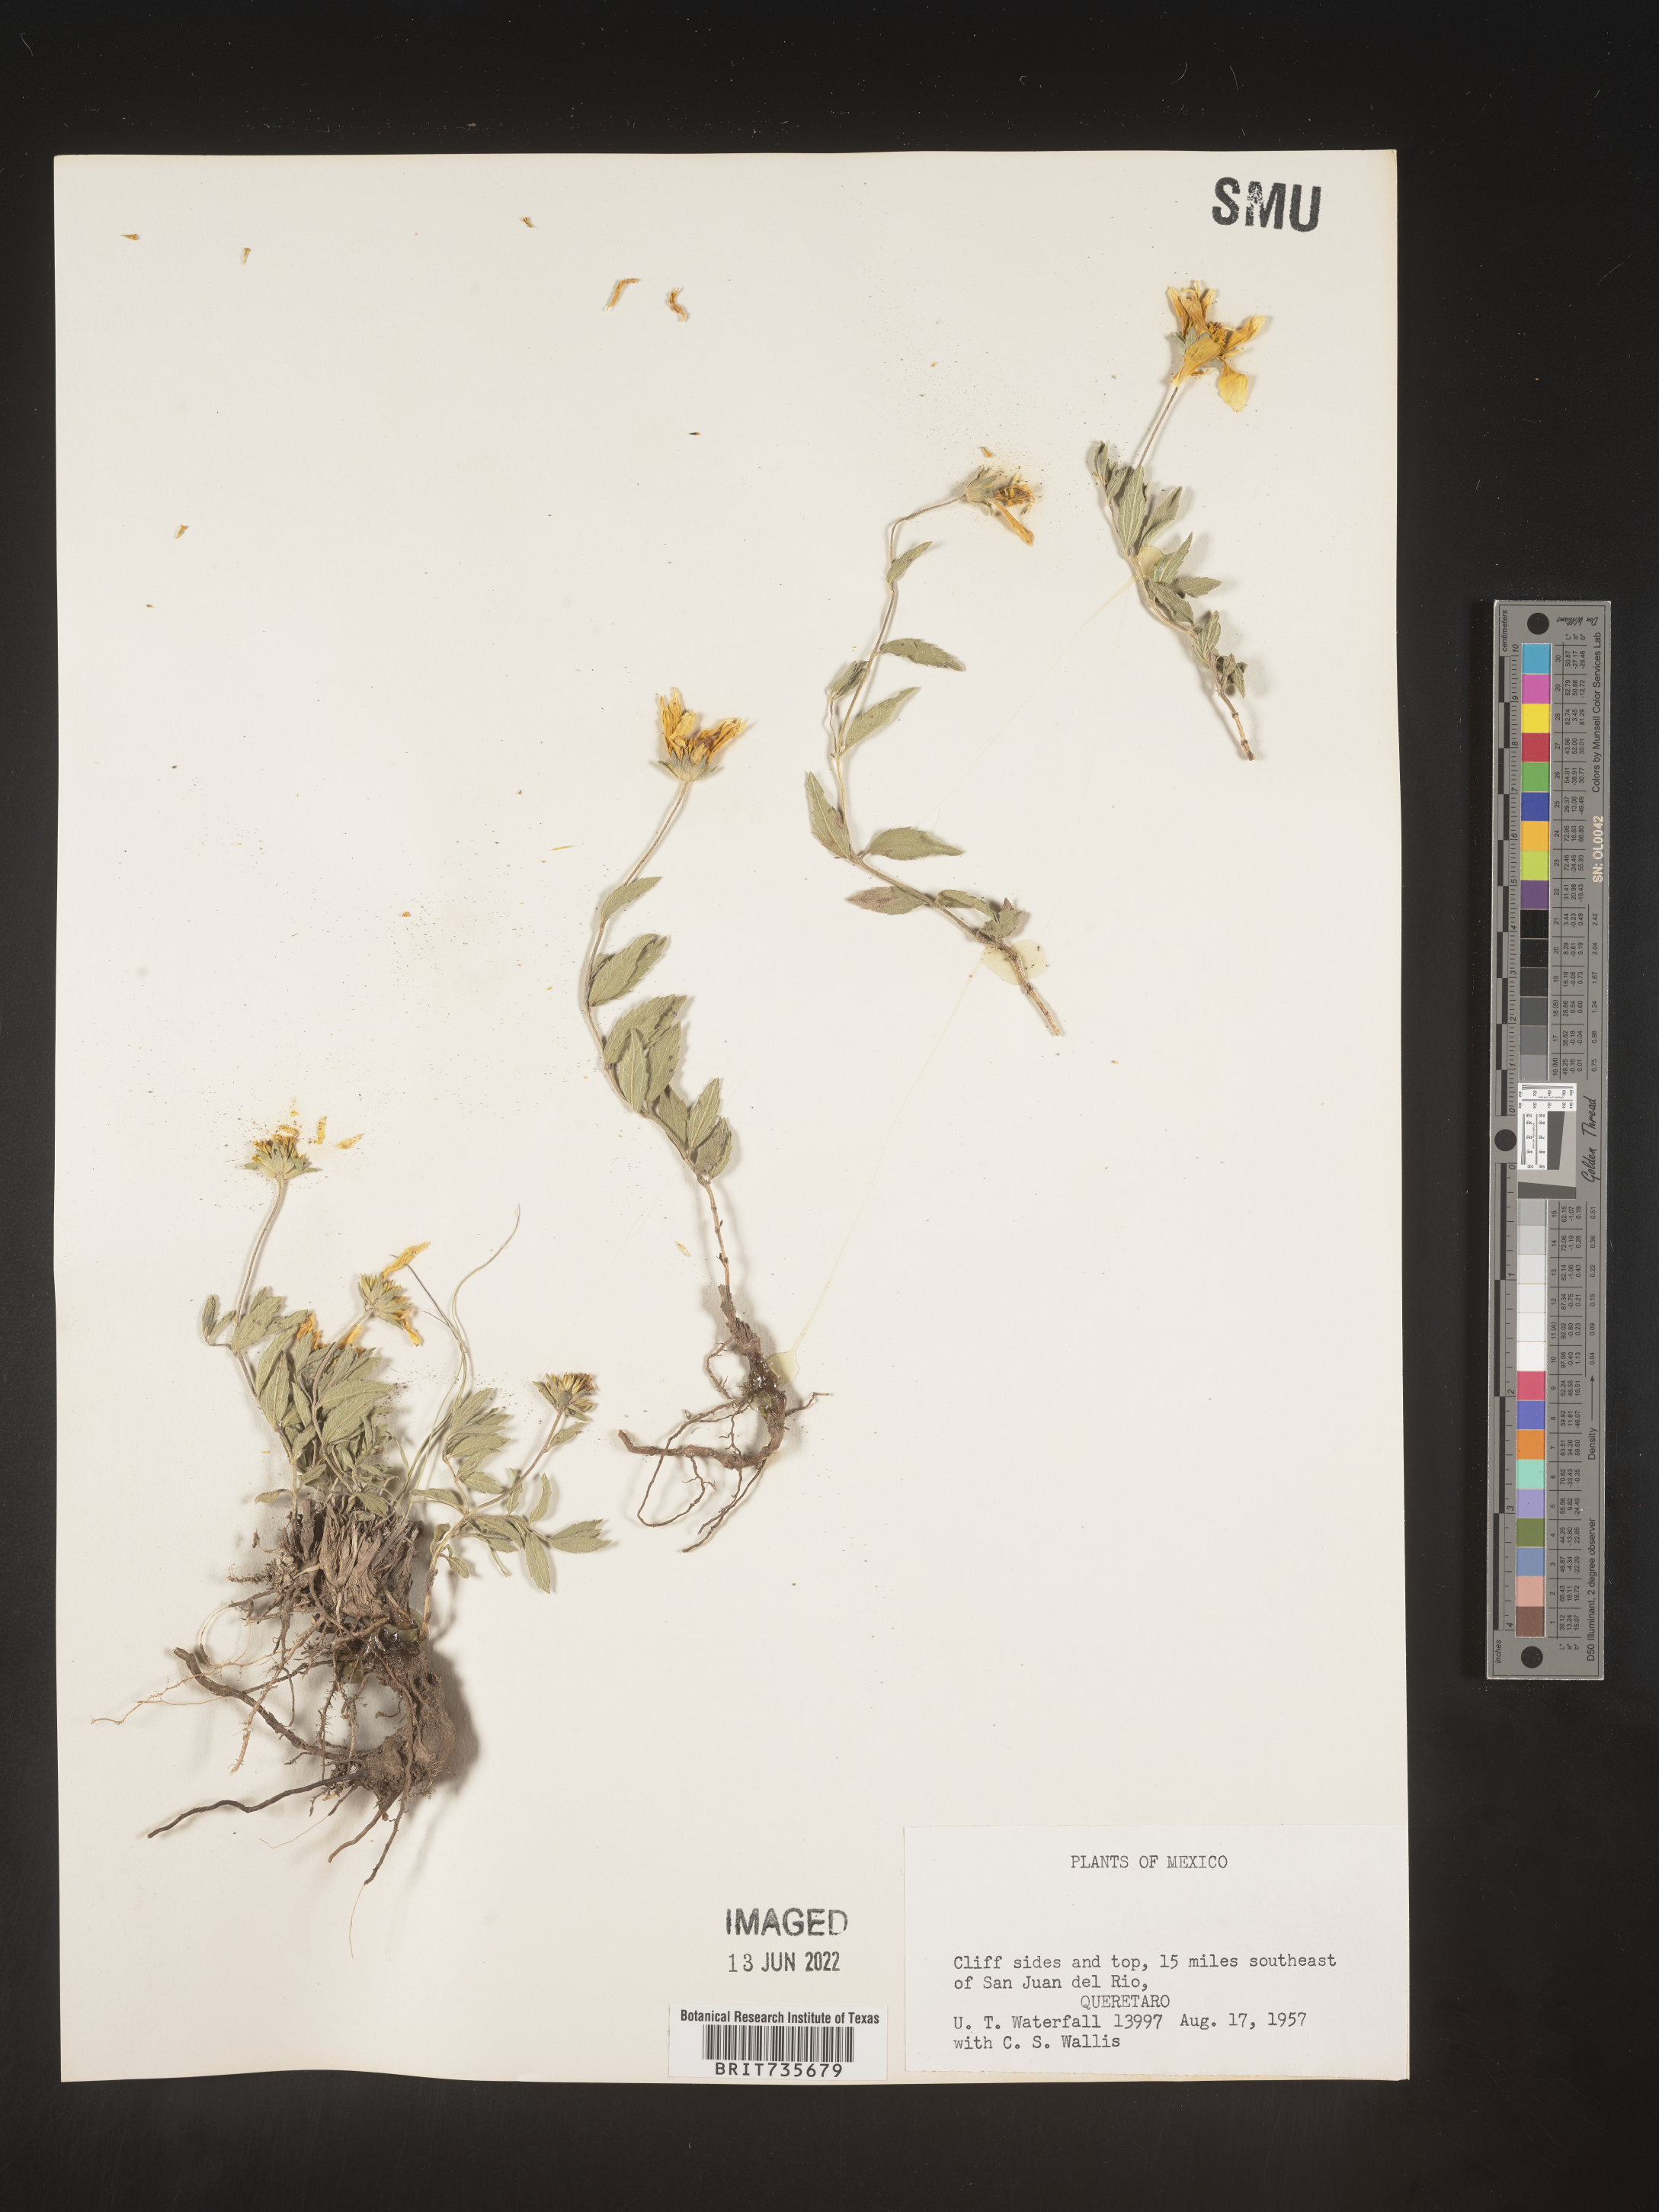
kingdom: Plantae
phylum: Tracheophyta
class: Magnoliopsida
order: Asterales
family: Asteraceae
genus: Perymenium
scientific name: Perymenium
